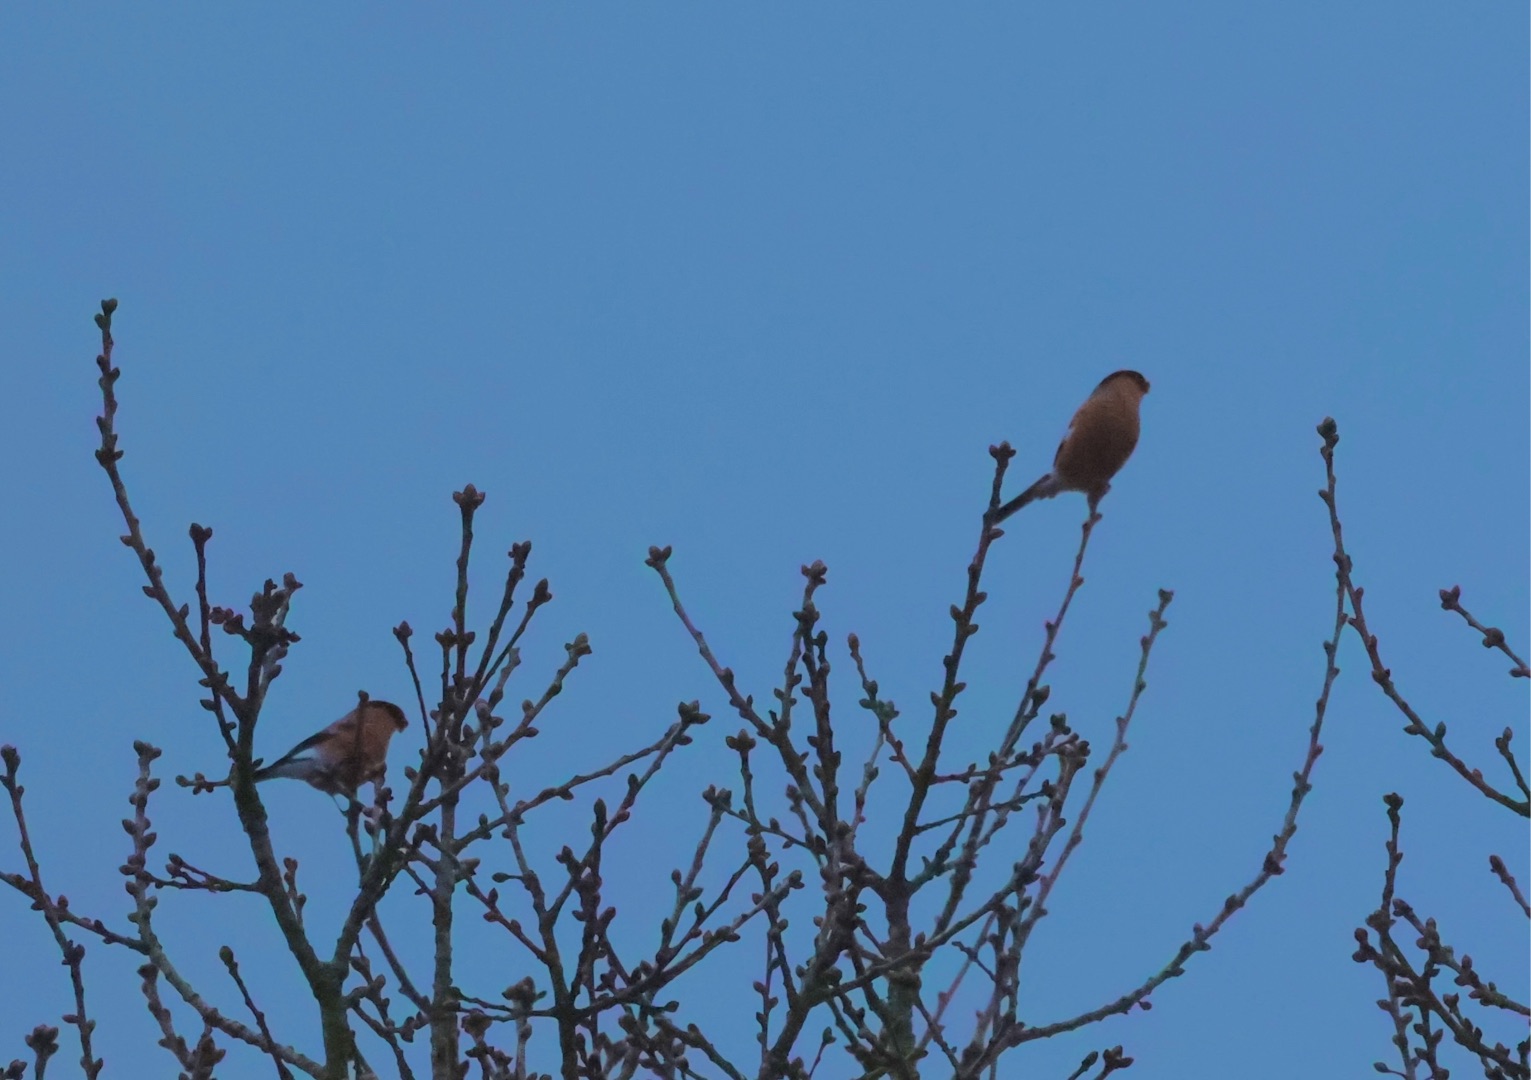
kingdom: Animalia
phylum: Chordata
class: Aves
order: Passeriformes
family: Fringillidae
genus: Pyrrhula
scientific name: Pyrrhula pyrrhula
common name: Dompap
